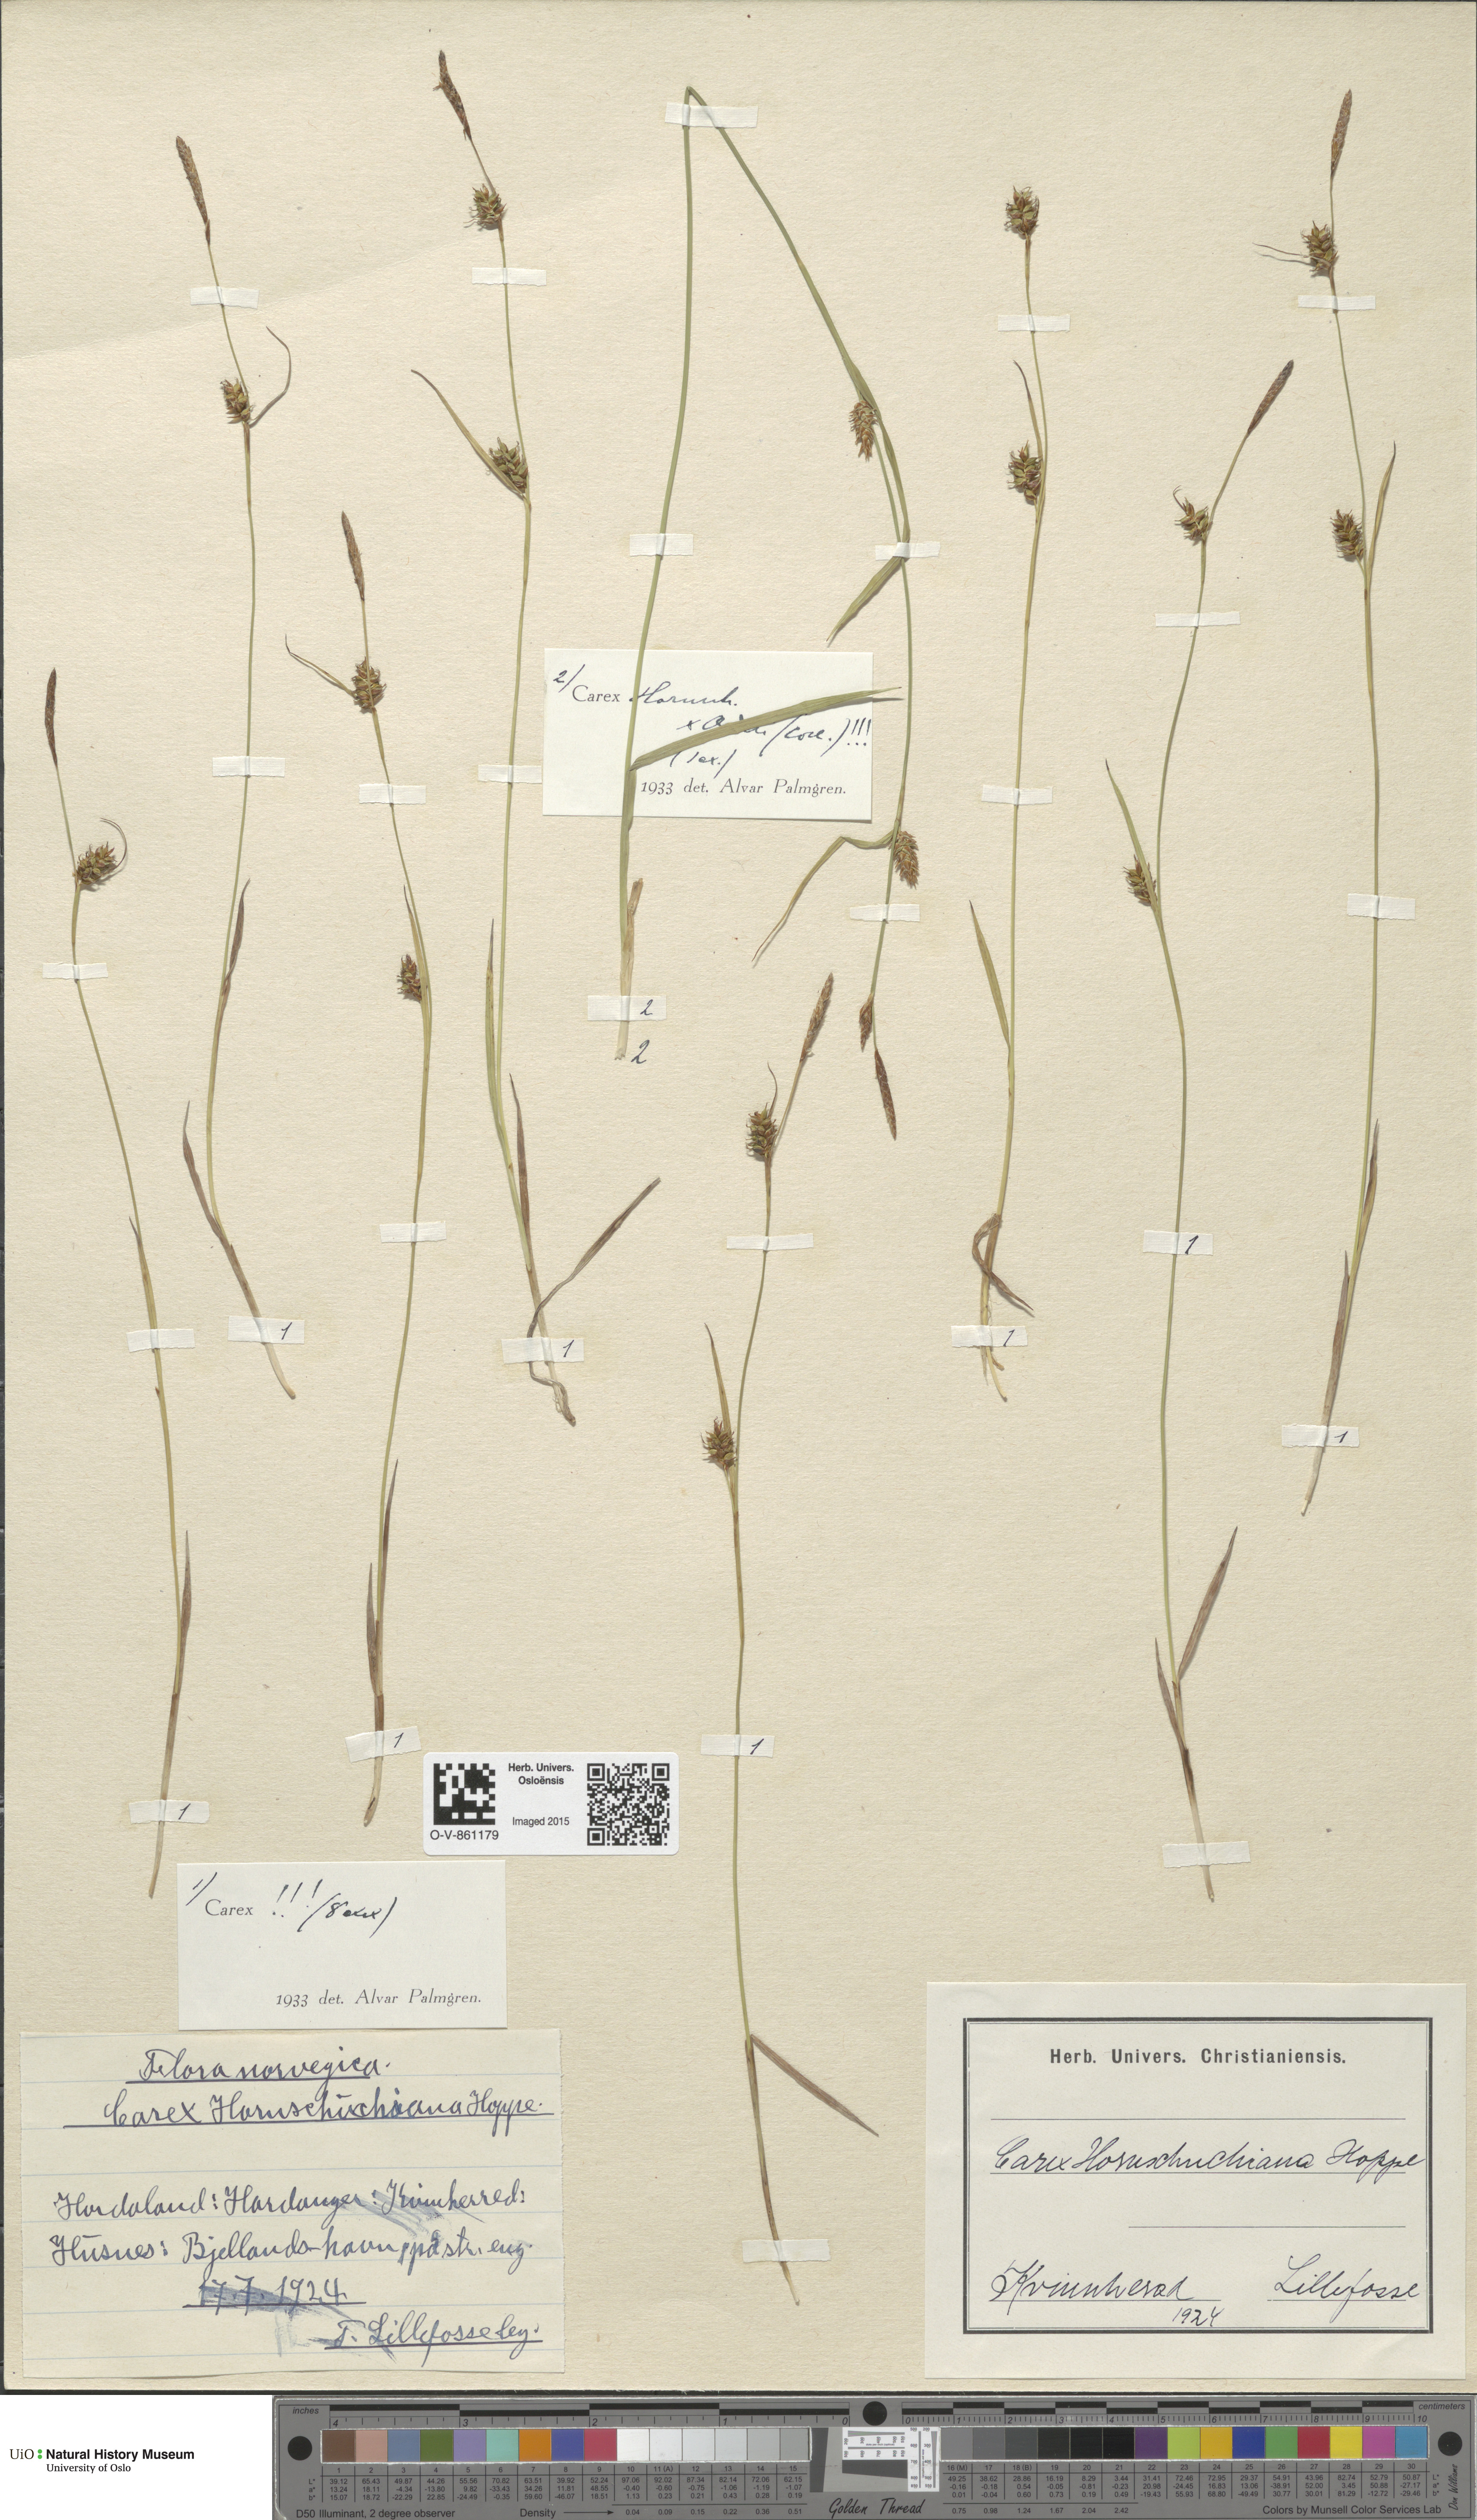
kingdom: Plantae
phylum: Tracheophyta
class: Liliopsida
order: Poales
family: Cyperaceae
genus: Carex
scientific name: Carex
